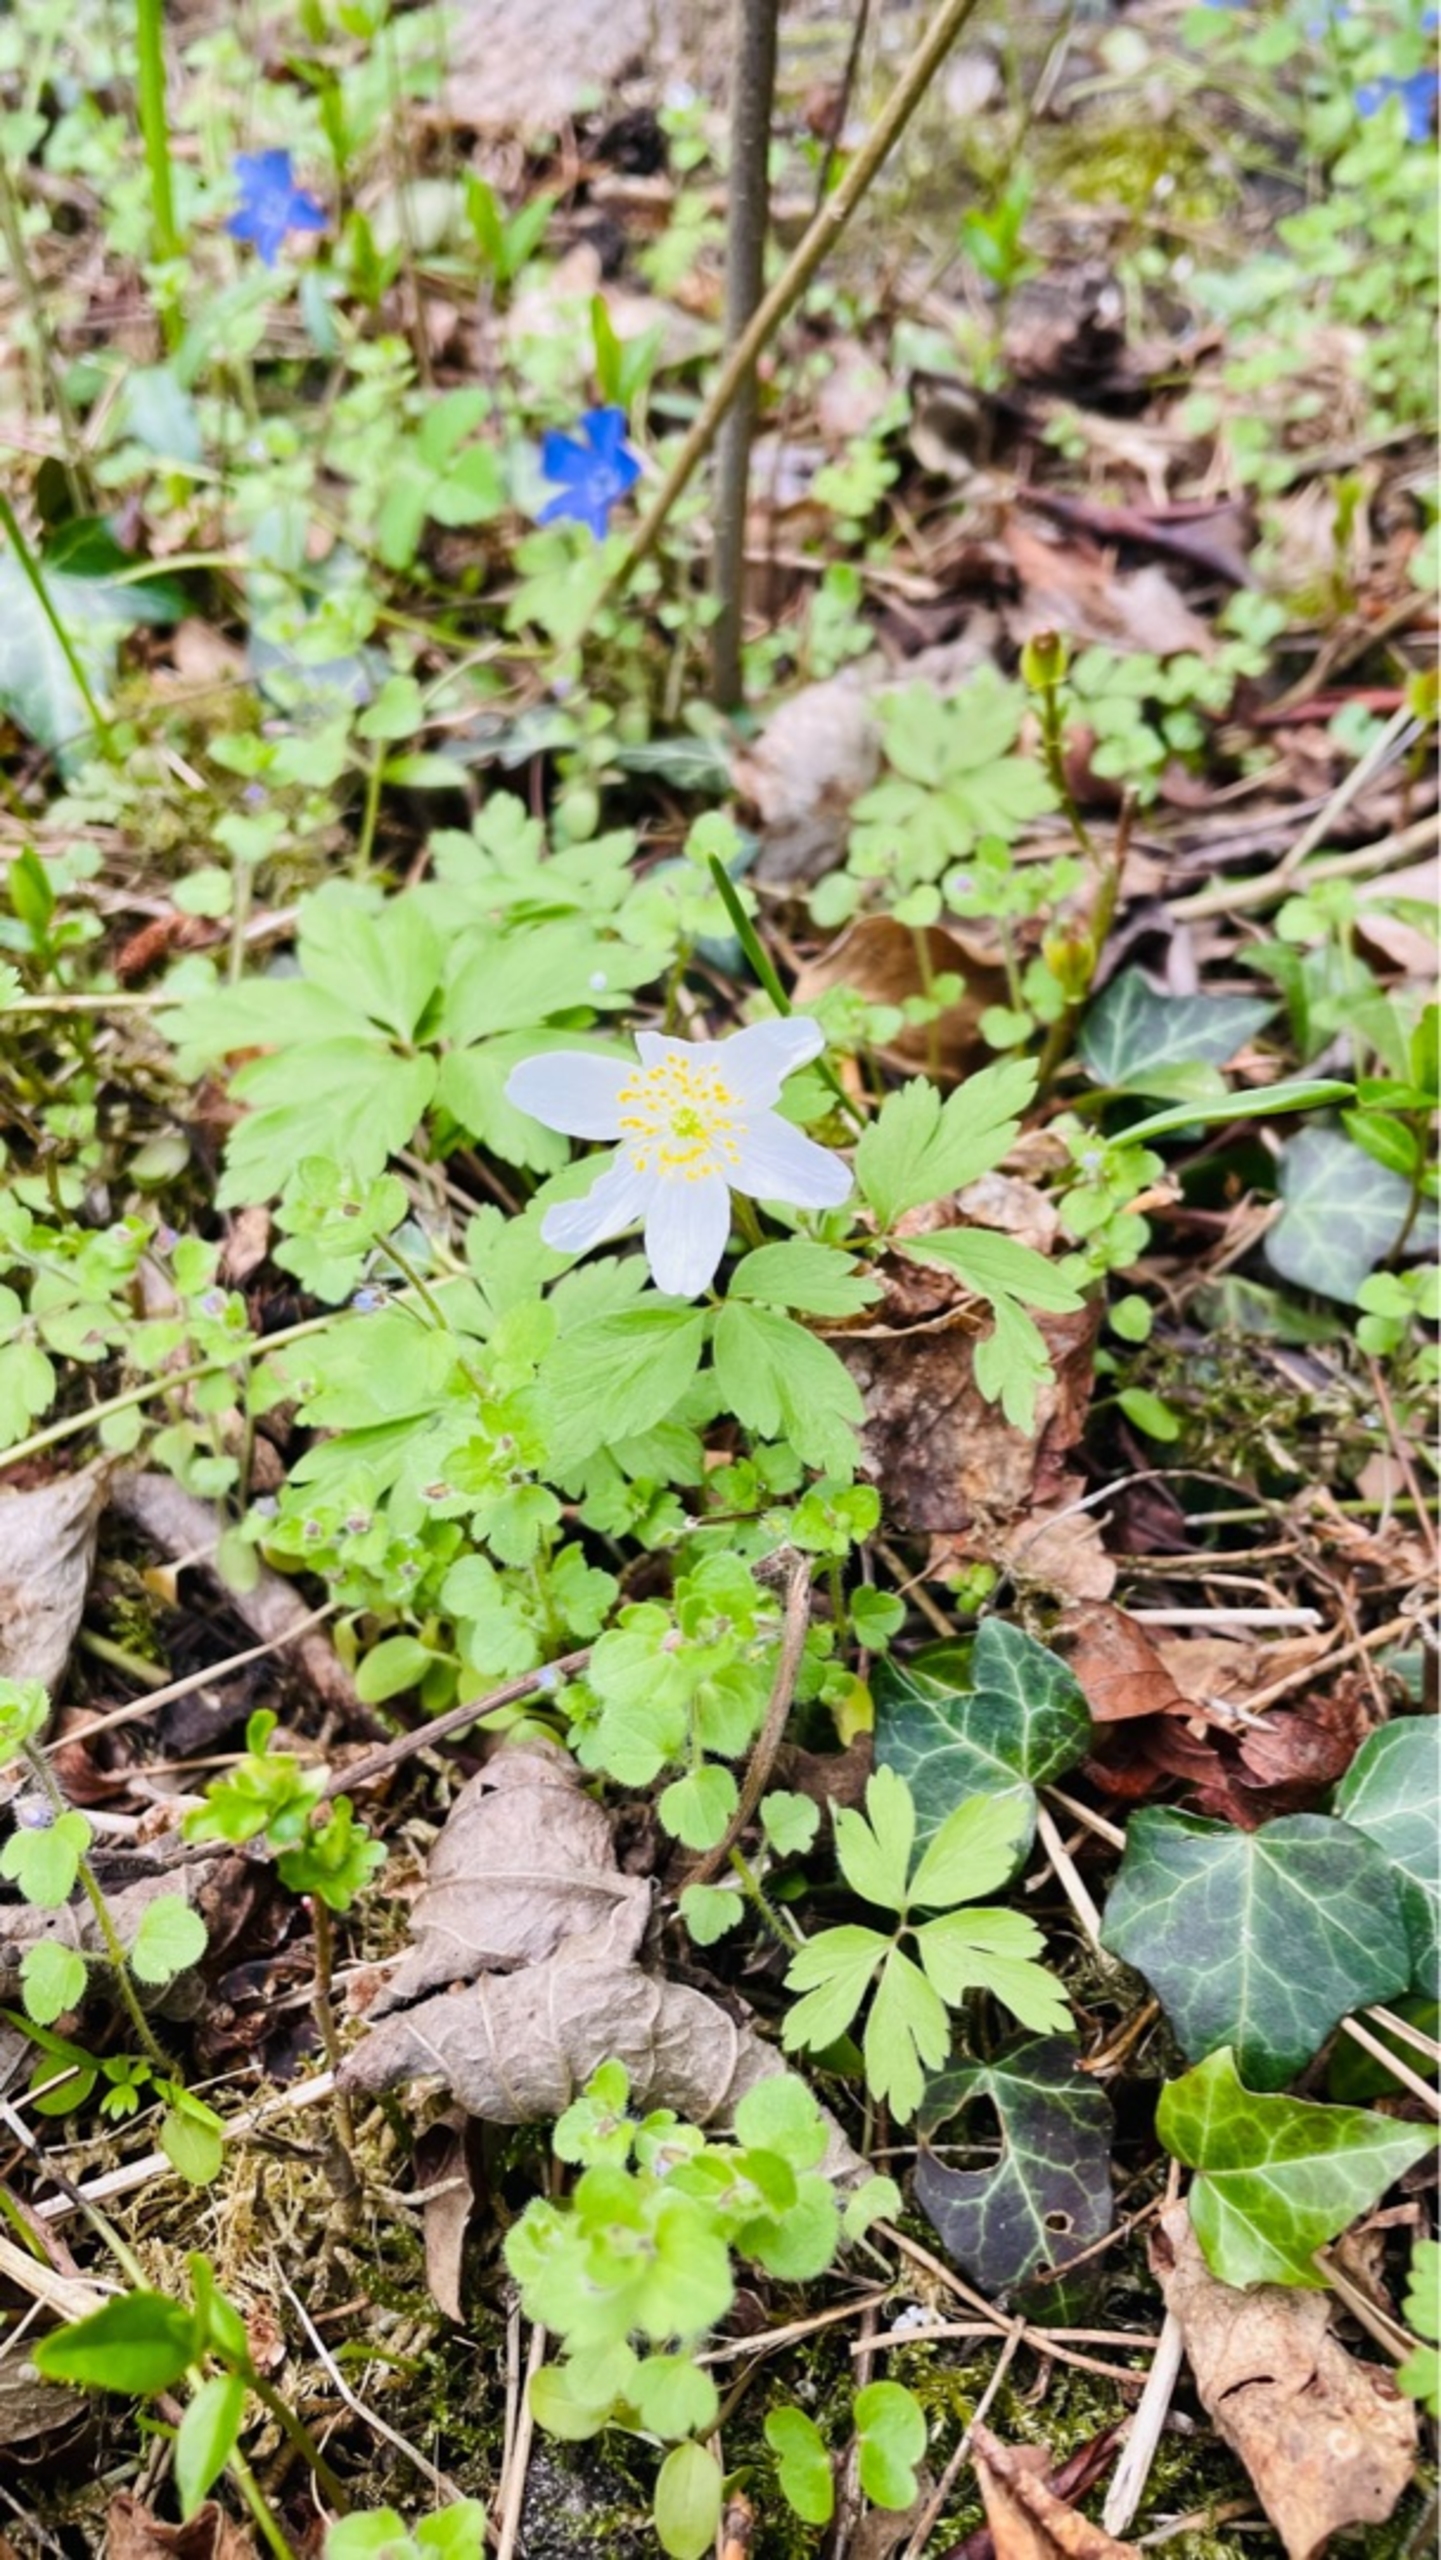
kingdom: Plantae
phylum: Tracheophyta
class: Magnoliopsida
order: Ranunculales
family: Ranunculaceae
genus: Anemone
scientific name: Anemone nemorosa
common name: Hvid anemone
